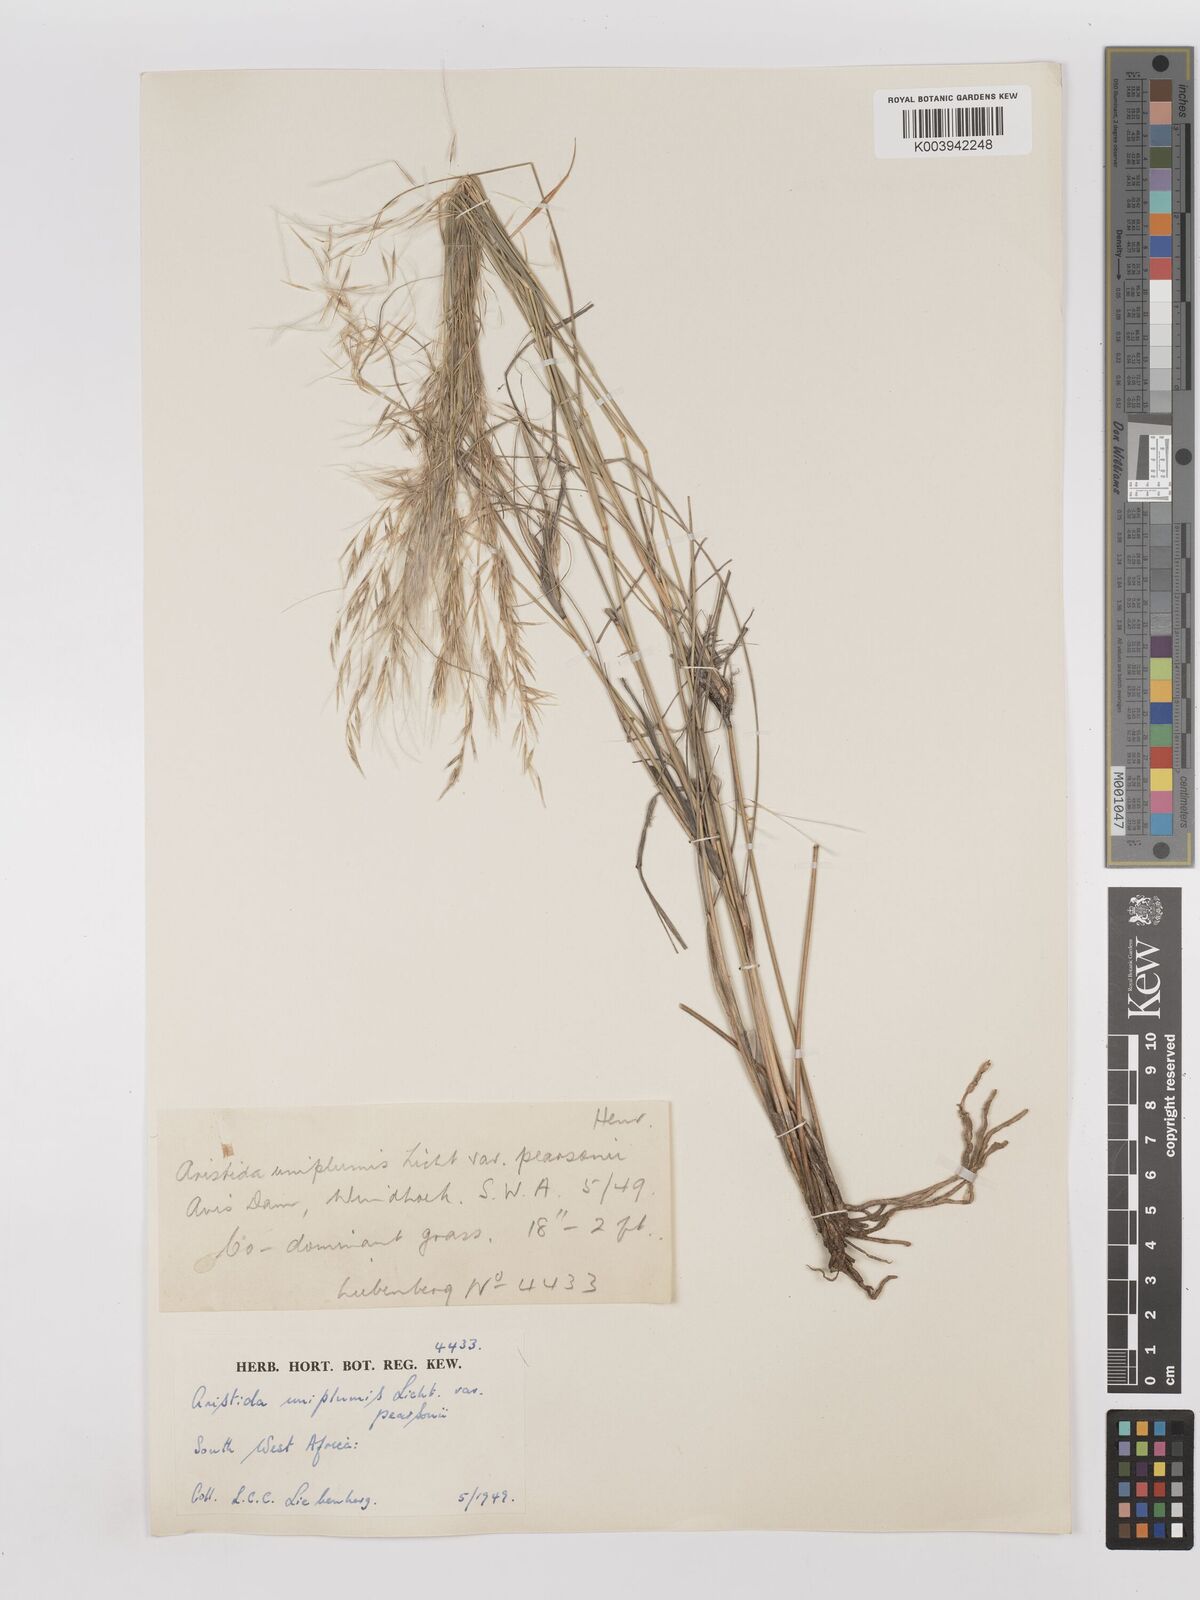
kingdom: Plantae
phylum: Tracheophyta
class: Liliopsida
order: Poales
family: Poaceae
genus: Stipagrostis
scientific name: Stipagrostis uniplumis
